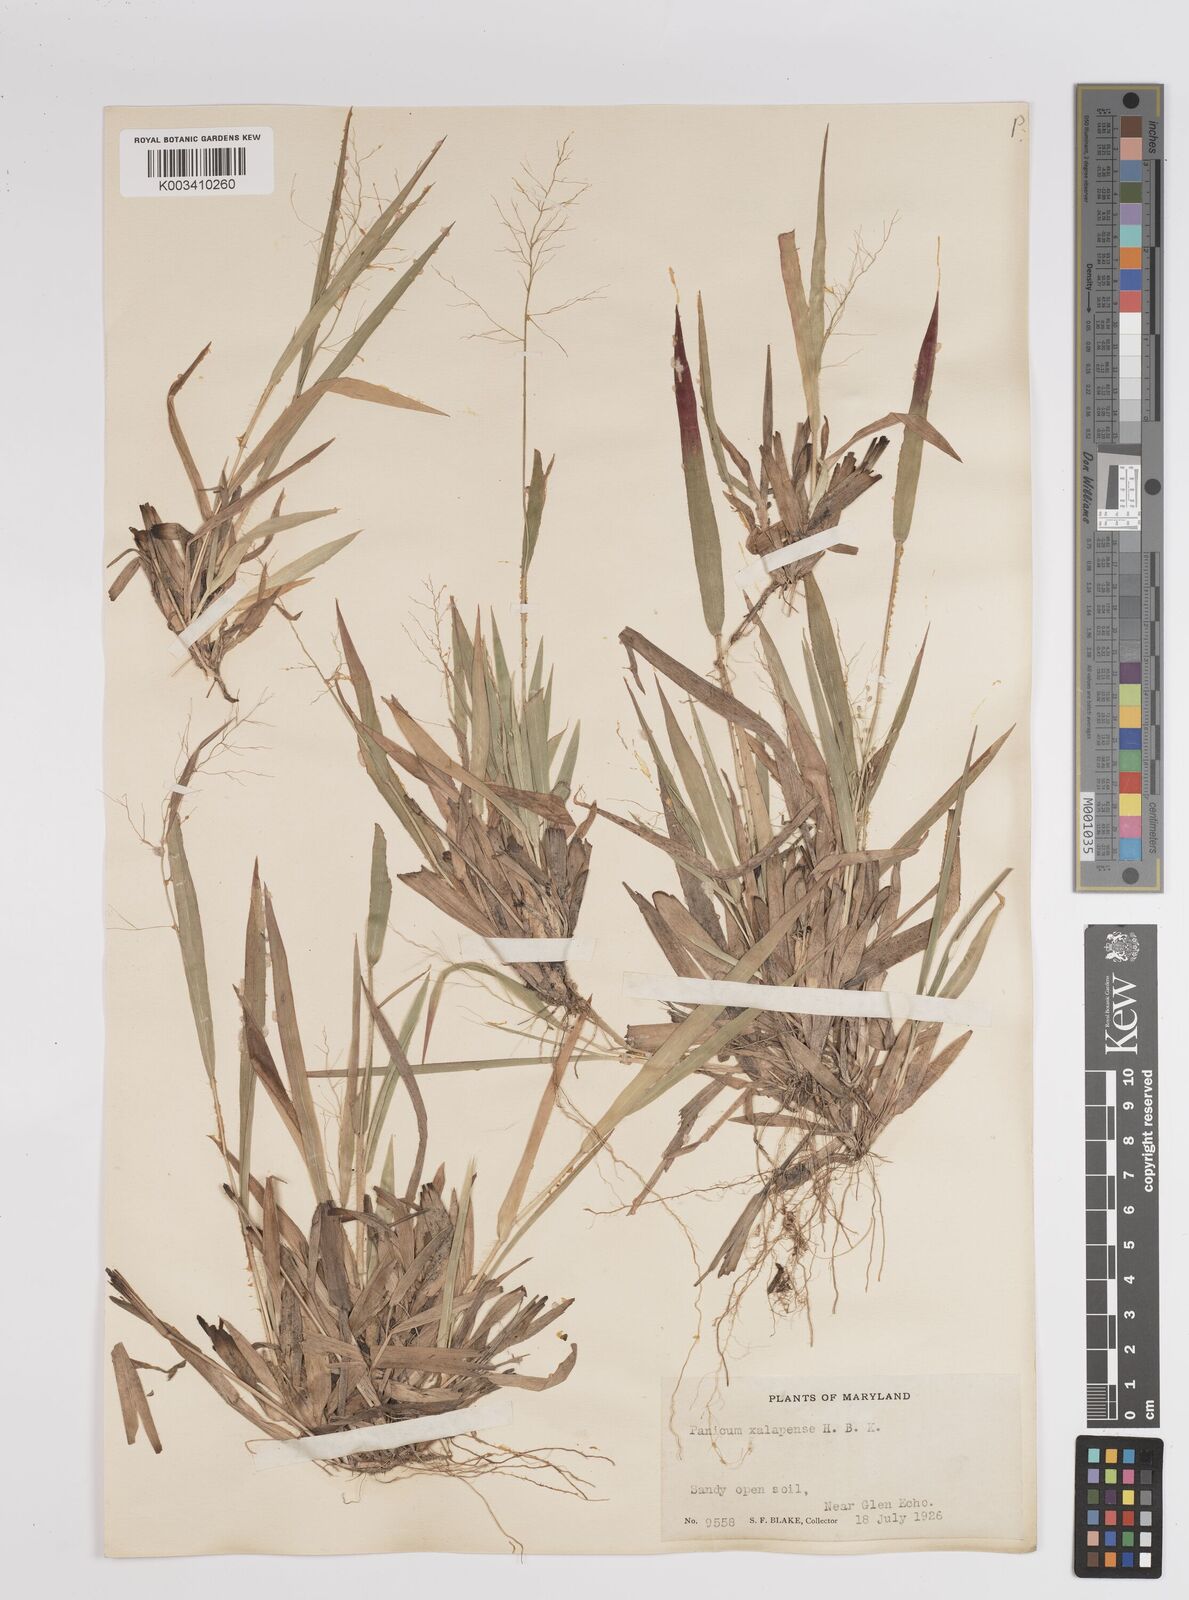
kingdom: Plantae
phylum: Tracheophyta
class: Liliopsida
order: Poales
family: Poaceae
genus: Dichanthelium
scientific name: Dichanthelium laxiflorum
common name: Soft-tuft panic grass
